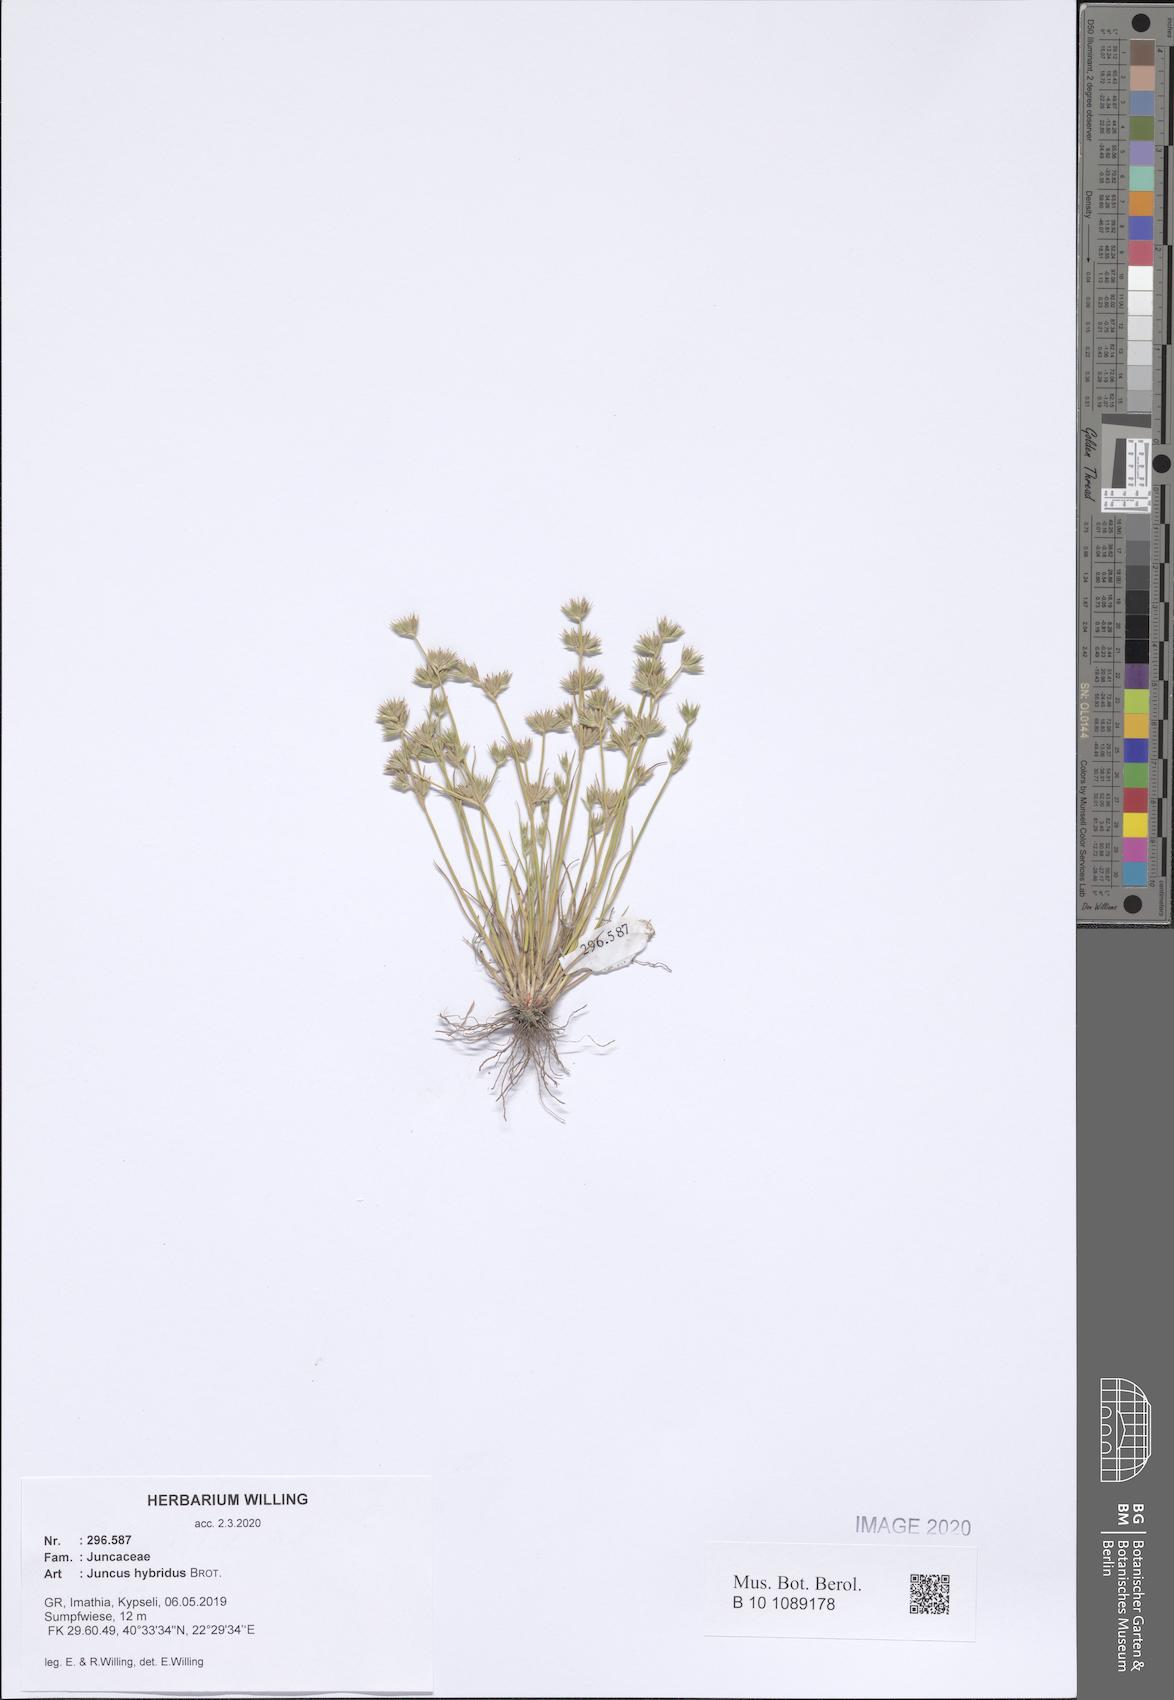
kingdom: Plantae
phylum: Tracheophyta
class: Liliopsida
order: Poales
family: Juncaceae
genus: Juncus
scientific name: Juncus hybridus
